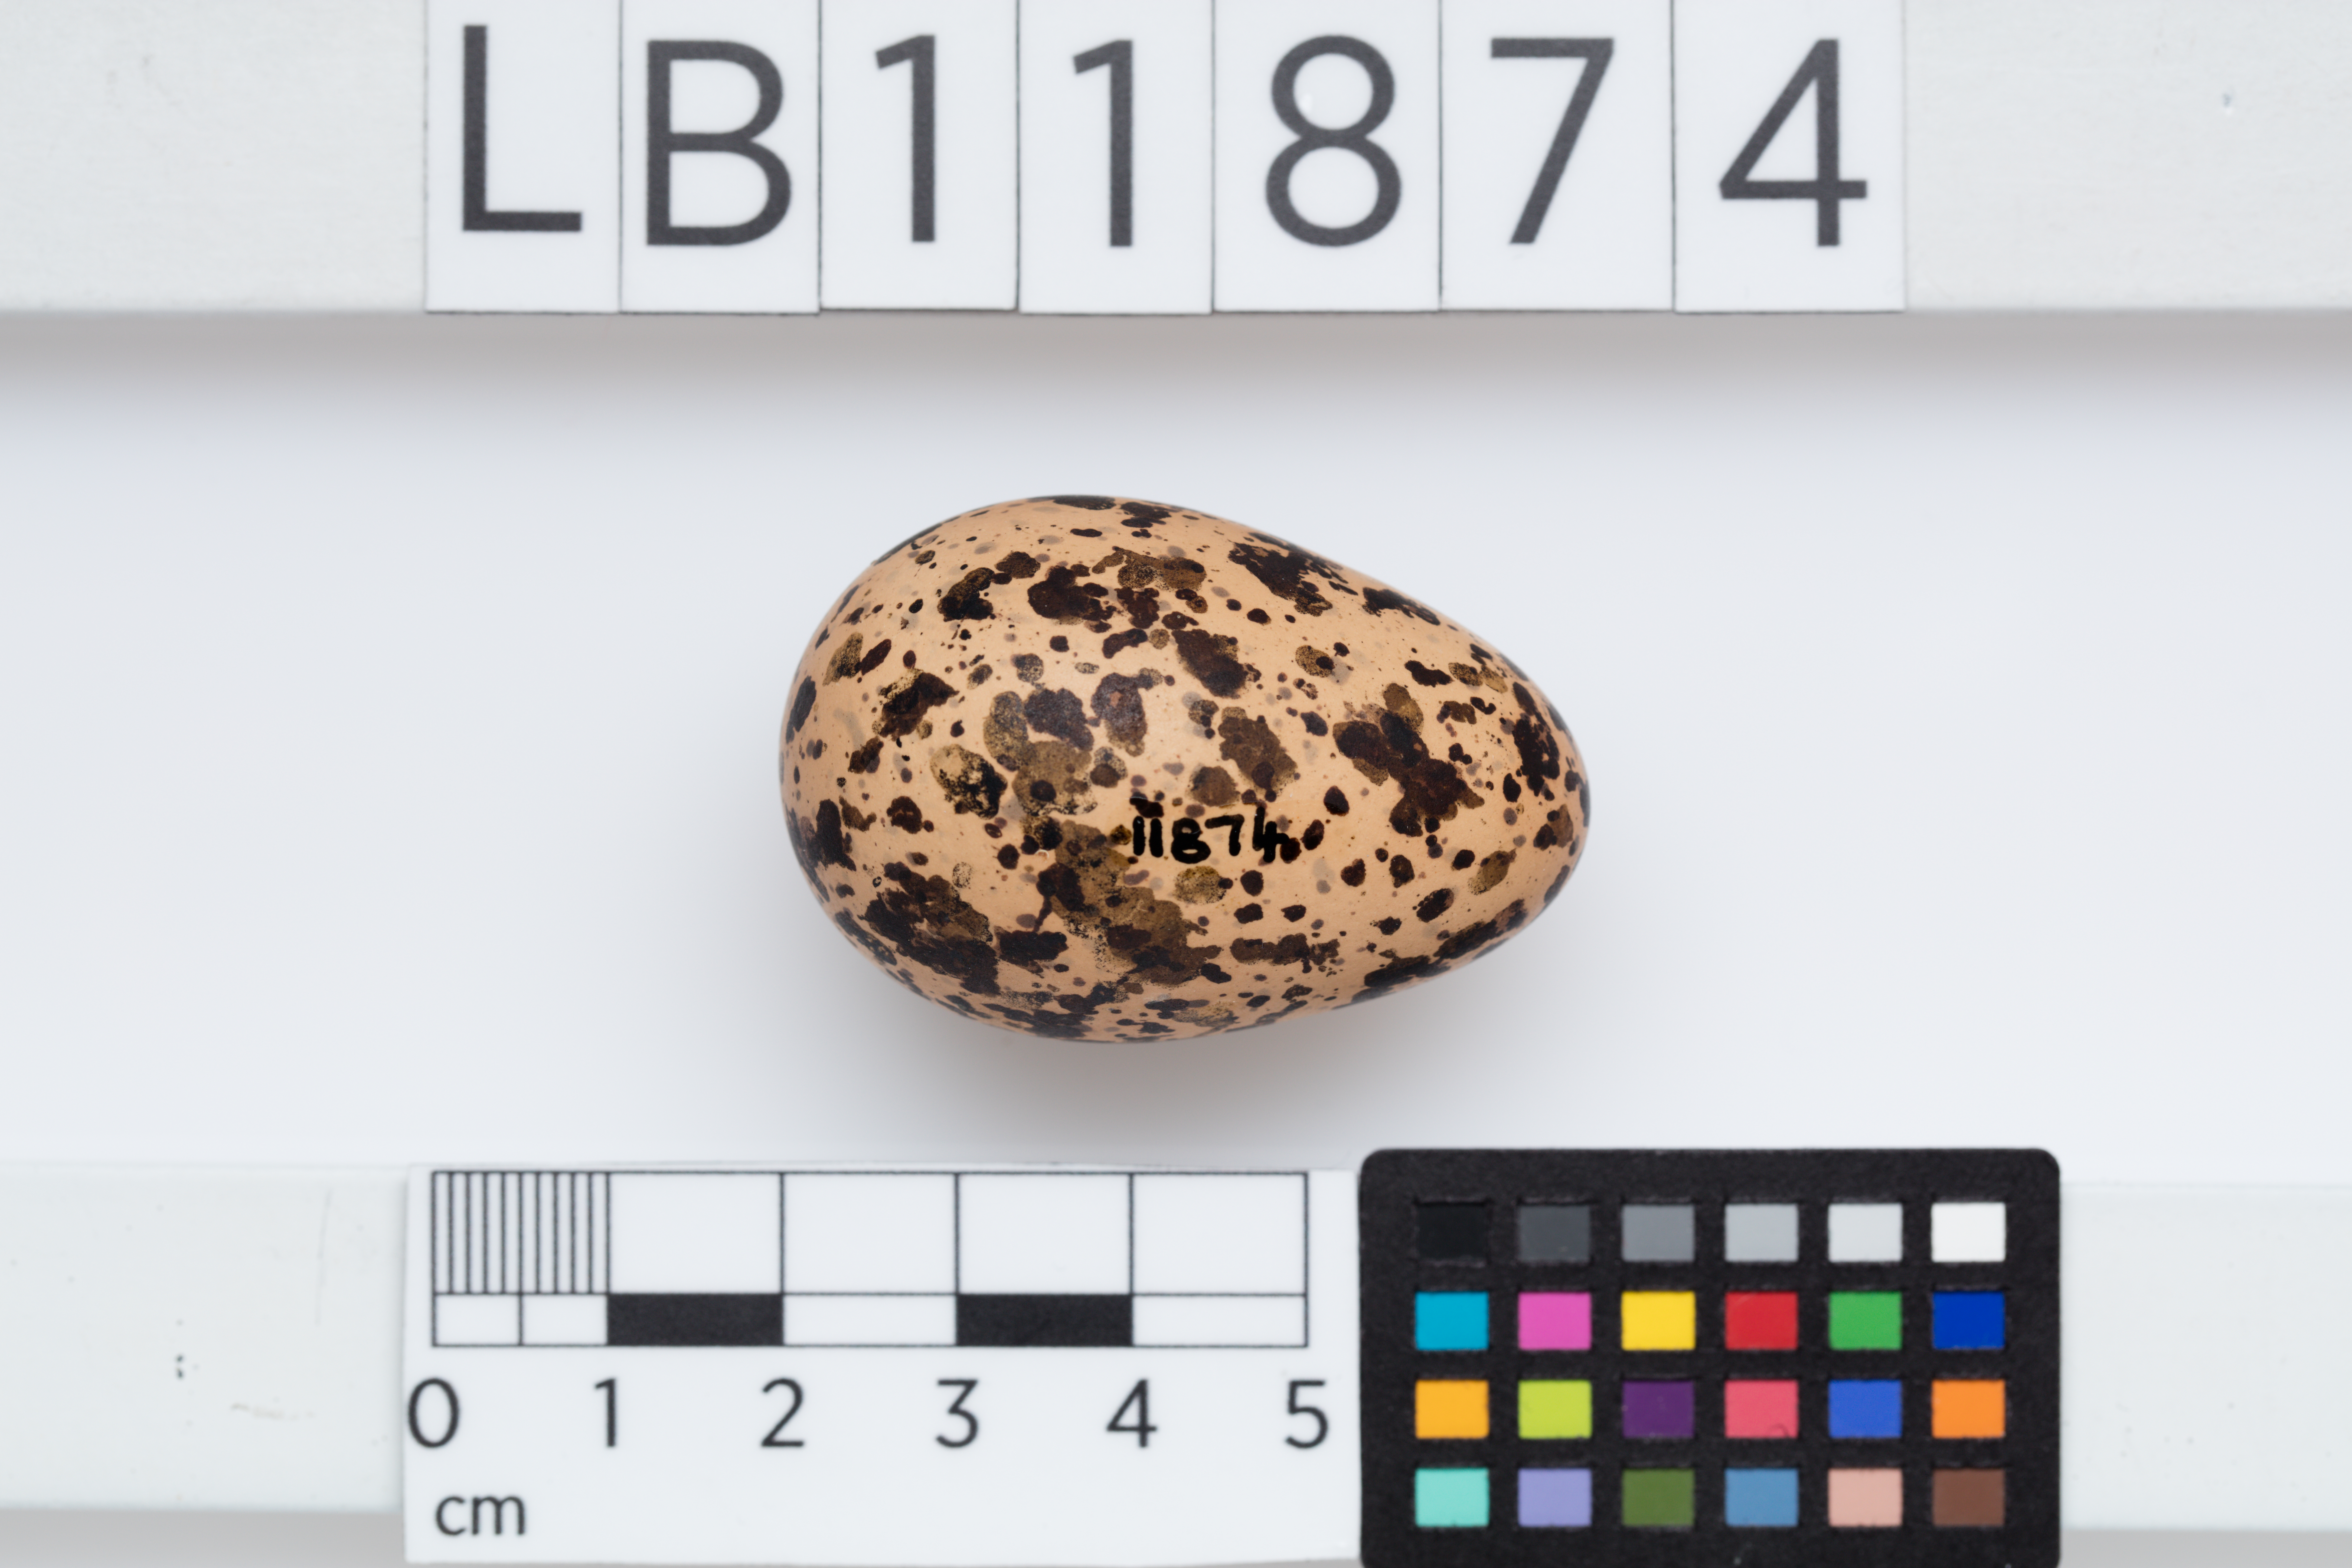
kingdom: Animalia
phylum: Chordata
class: Aves
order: Charadriiformes
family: Charadriidae
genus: Charadrius
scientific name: Charadrius morinellus
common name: Eurasian dotterel
